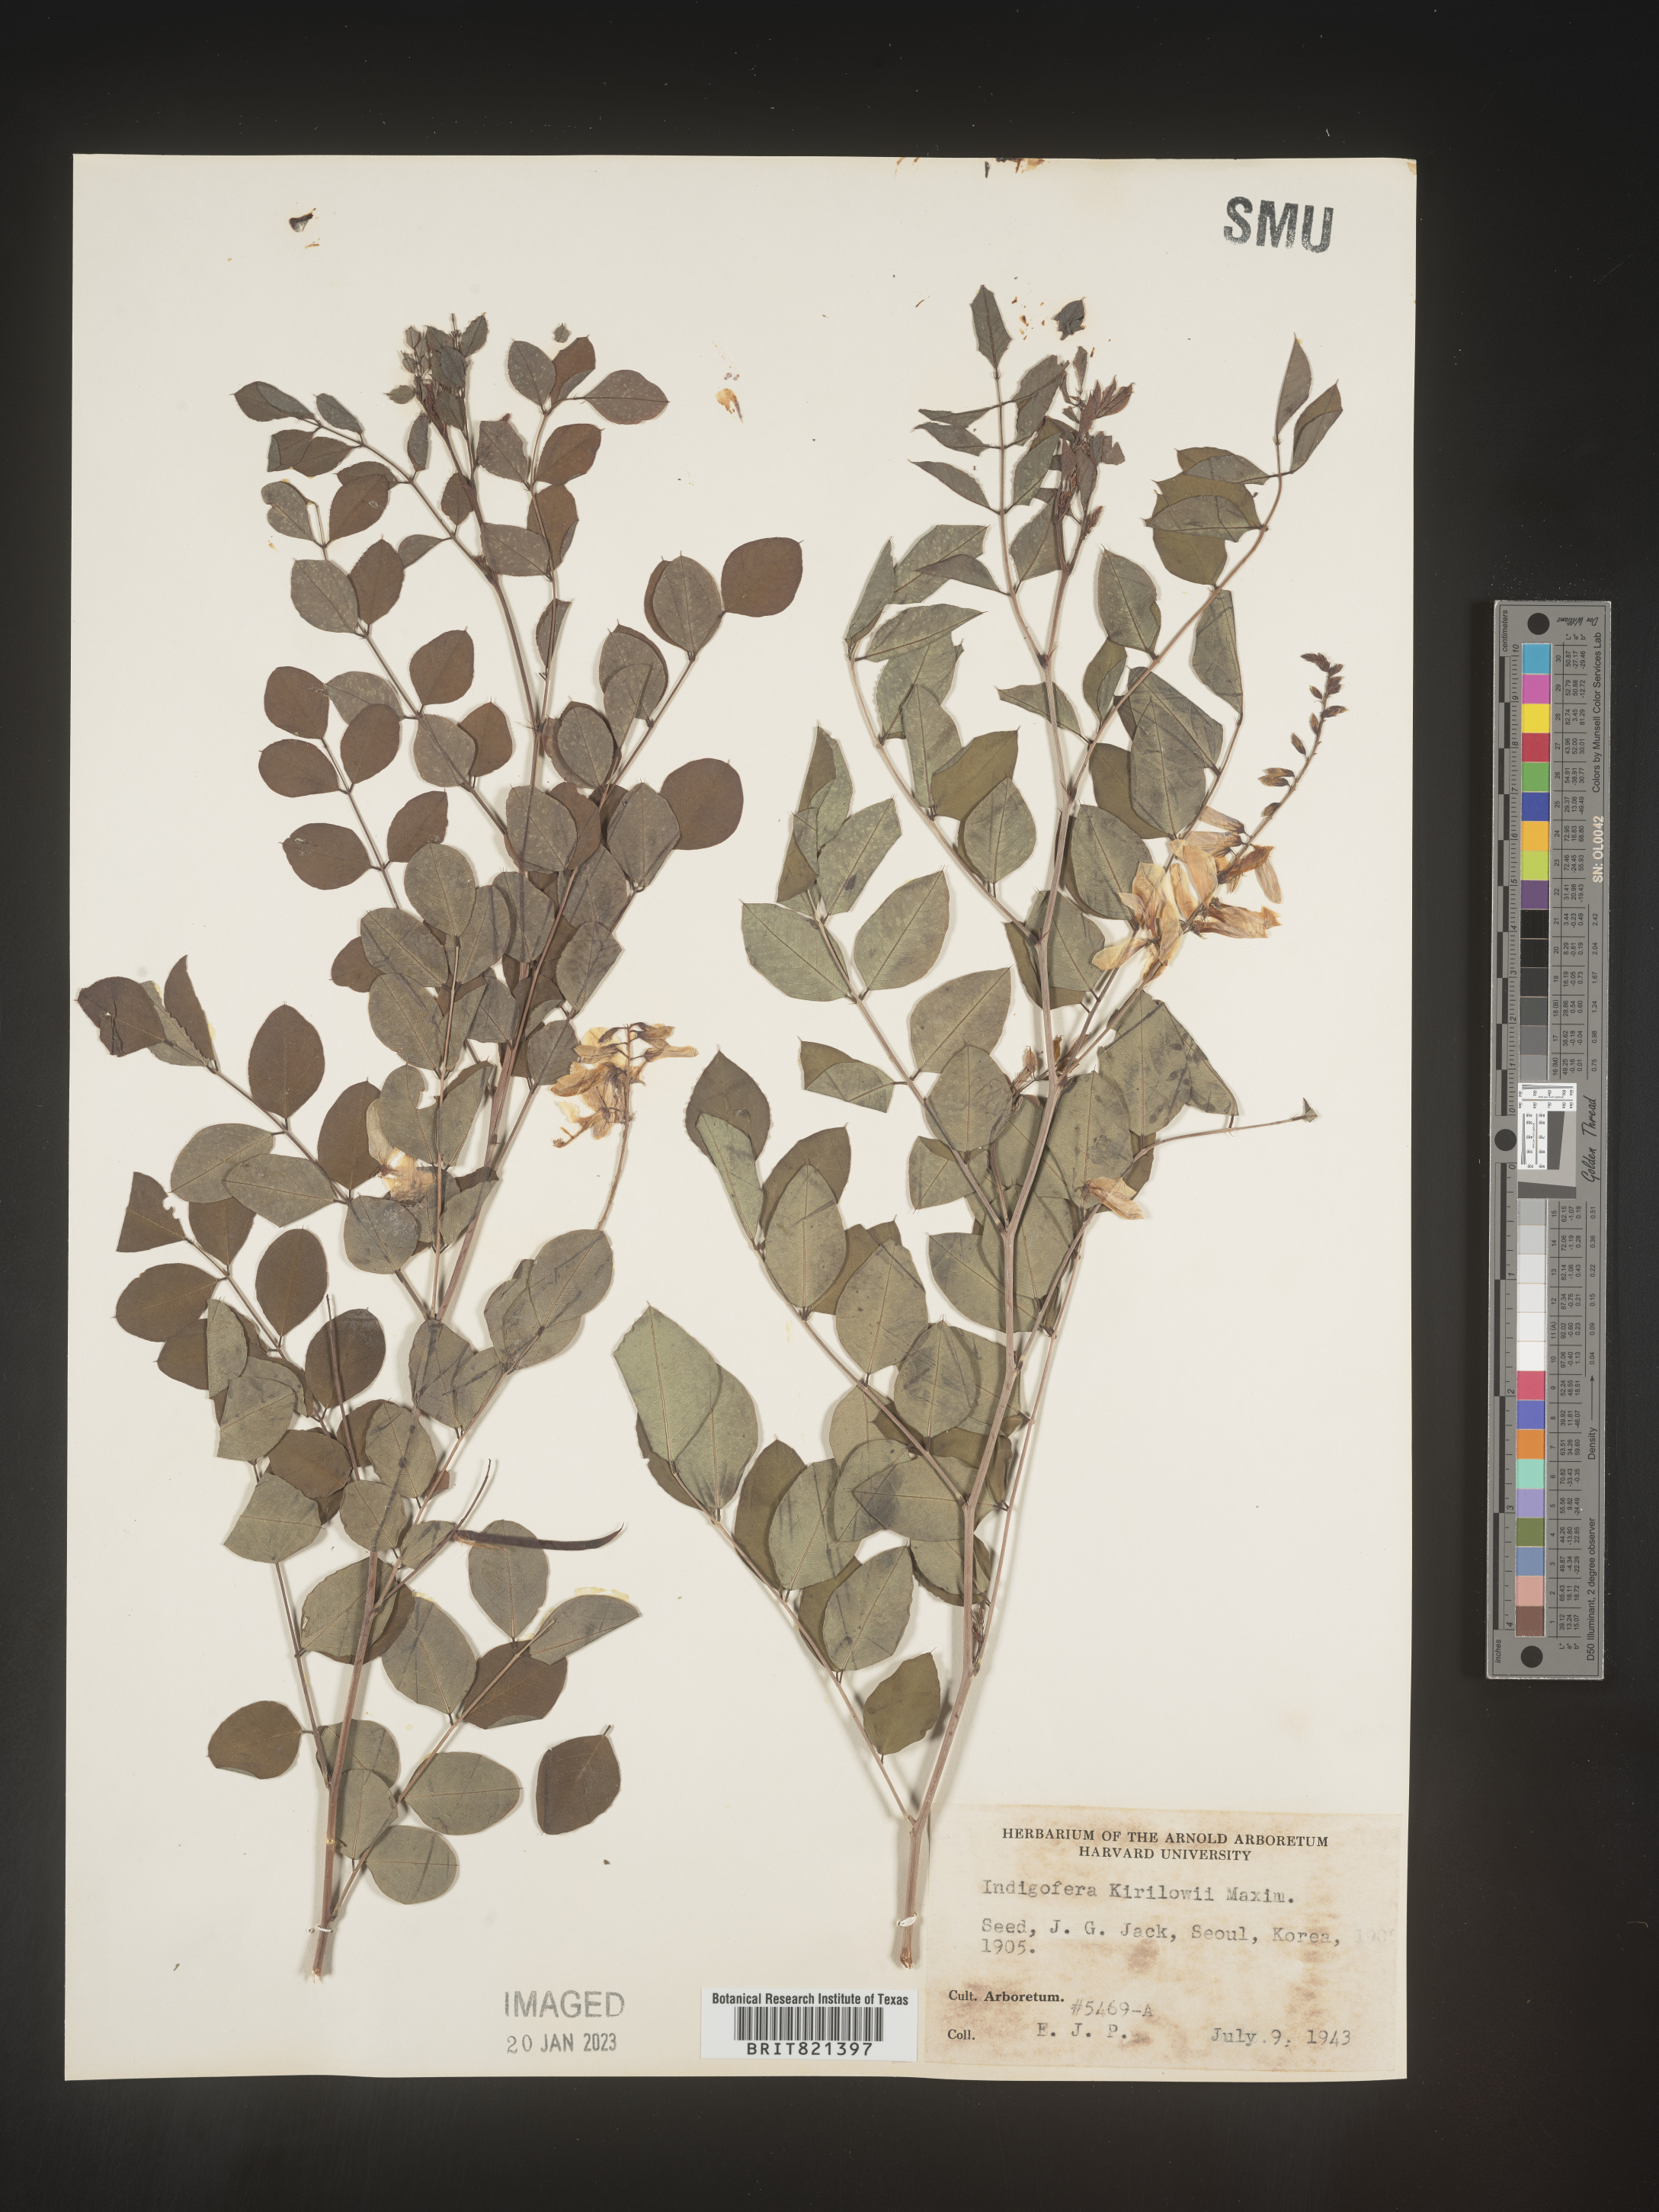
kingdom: Plantae
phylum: Tracheophyta
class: Magnoliopsida
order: Fabales
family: Fabaceae
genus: Indigofera
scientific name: Indigofera
